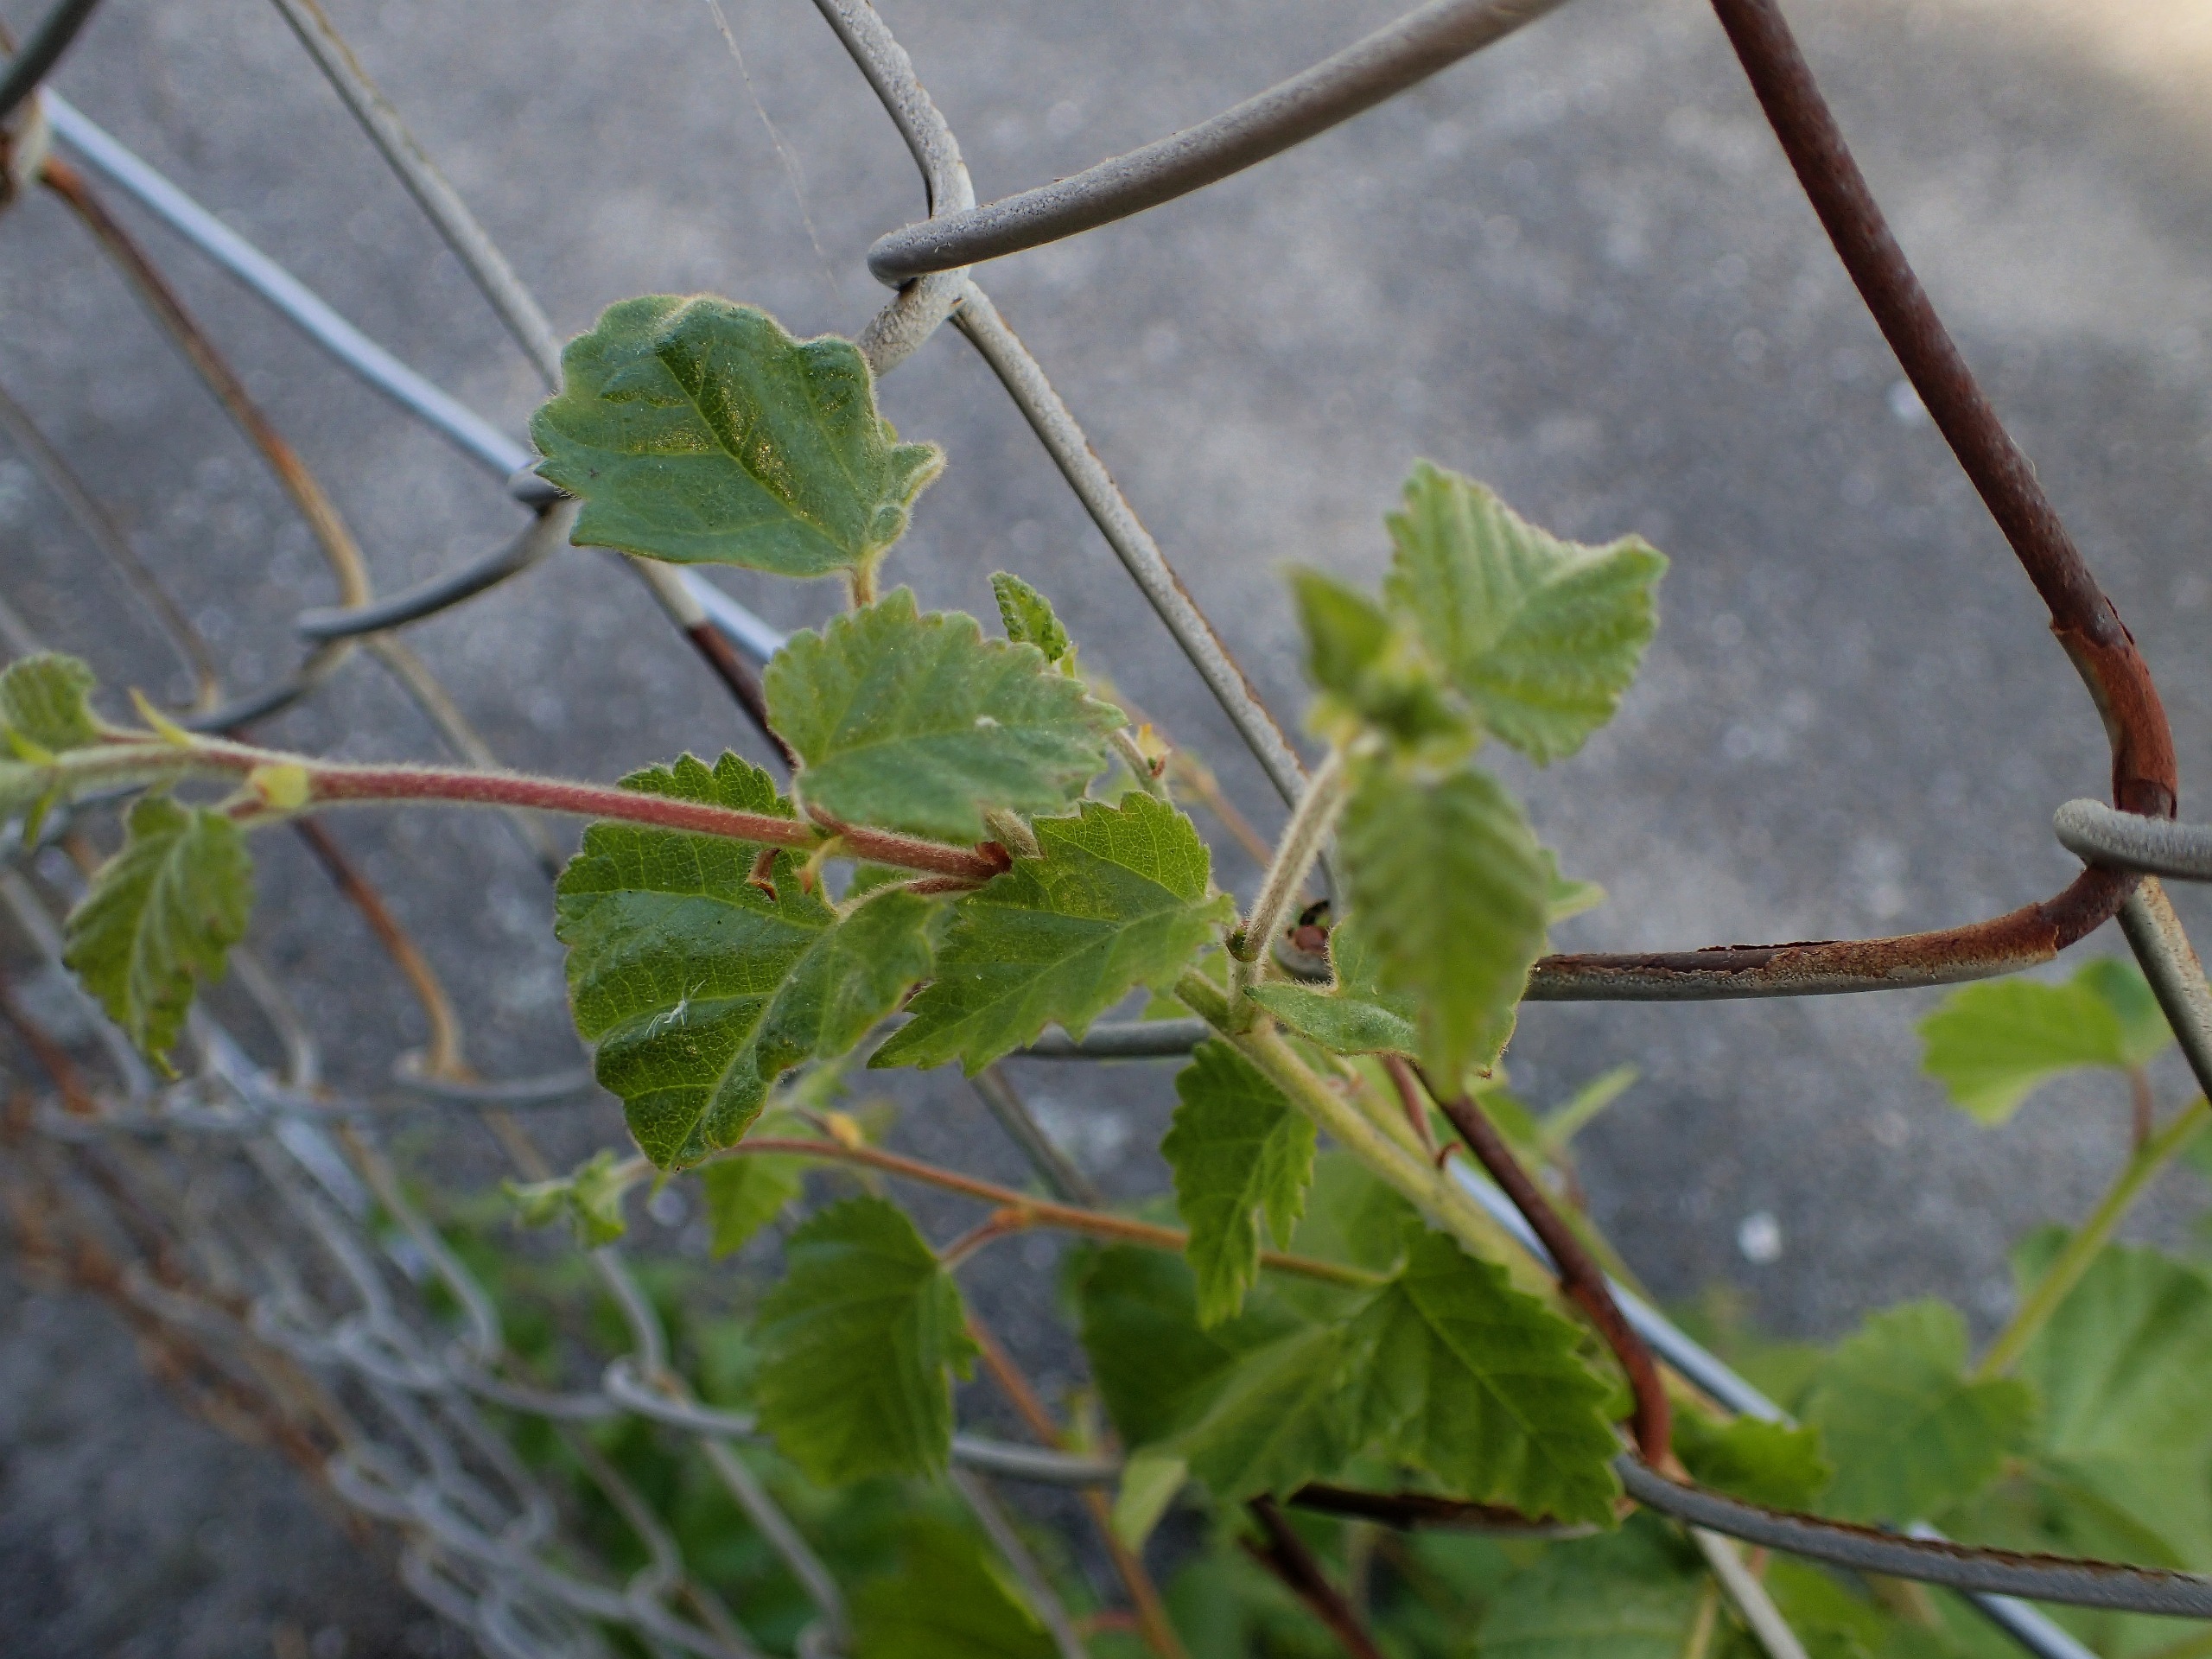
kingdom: Plantae
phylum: Tracheophyta
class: Magnoliopsida
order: Fagales
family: Betulaceae
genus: Betula
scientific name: Betula pubescens
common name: Dun-birk
